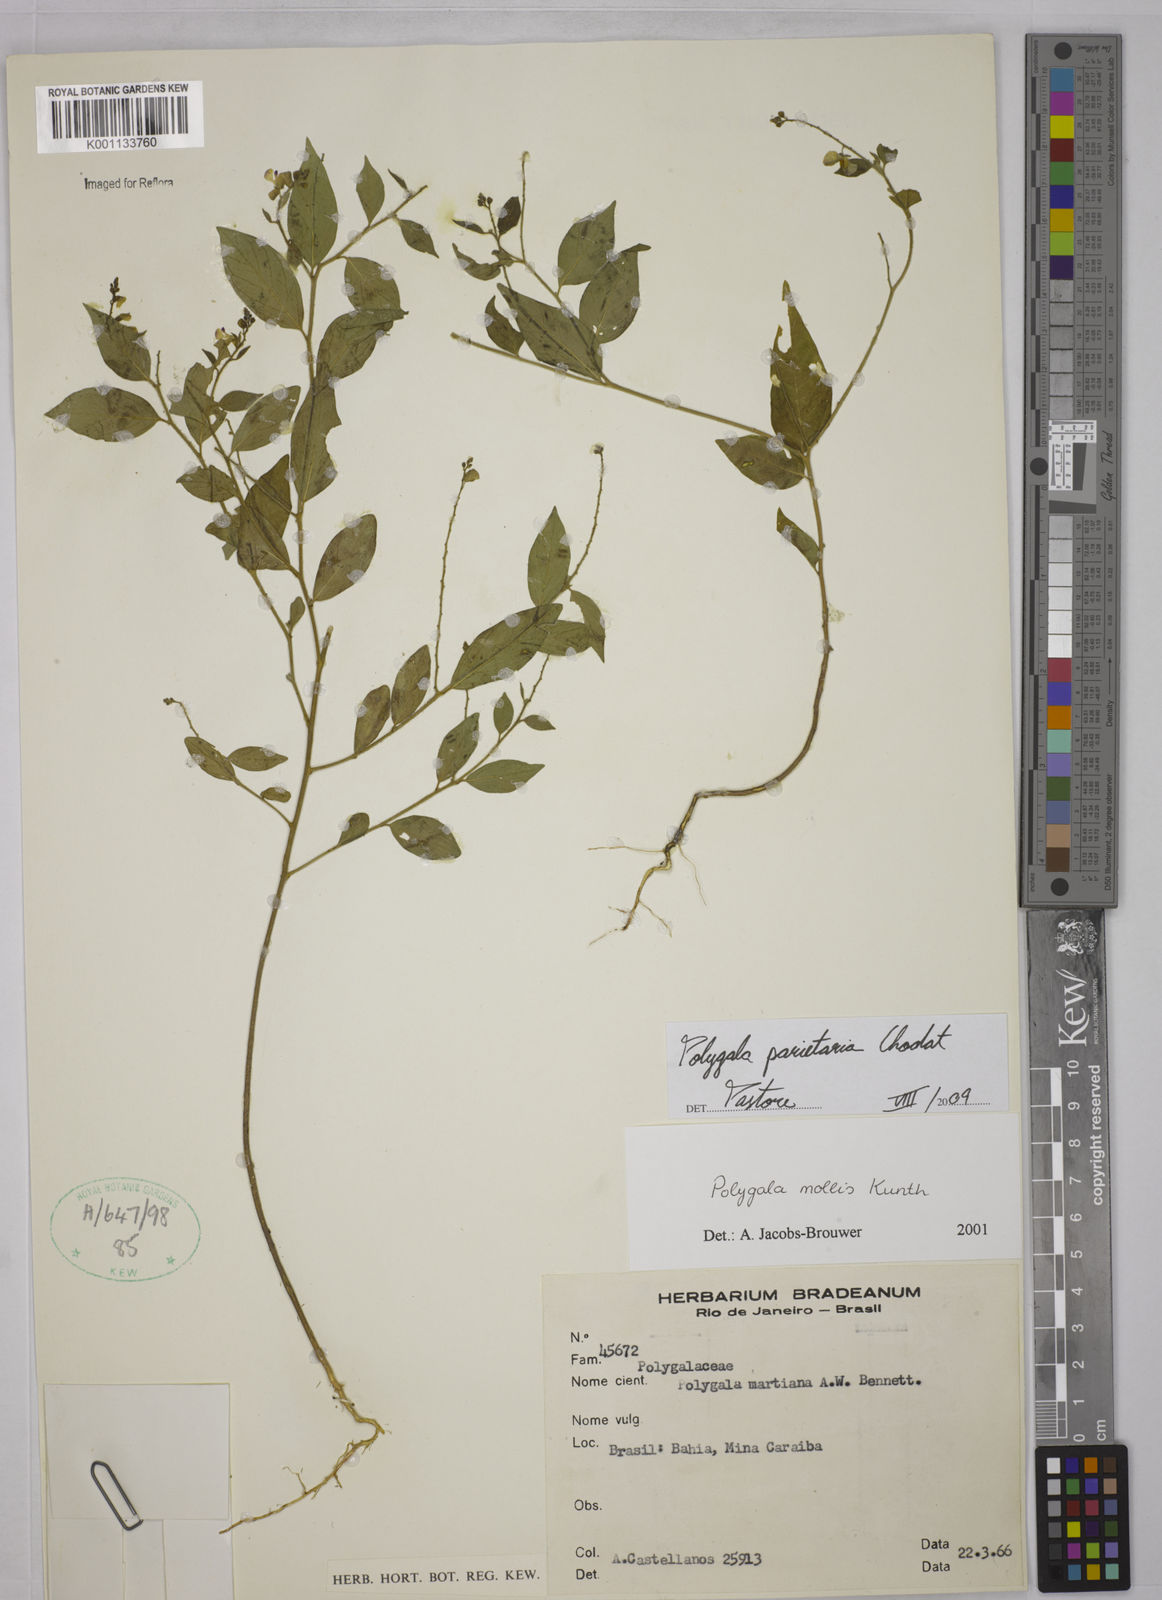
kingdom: Plantae
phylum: Tracheophyta
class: Magnoliopsida
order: Fabales
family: Polygalaceae
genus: Asemeia
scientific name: Asemeia parietaria
